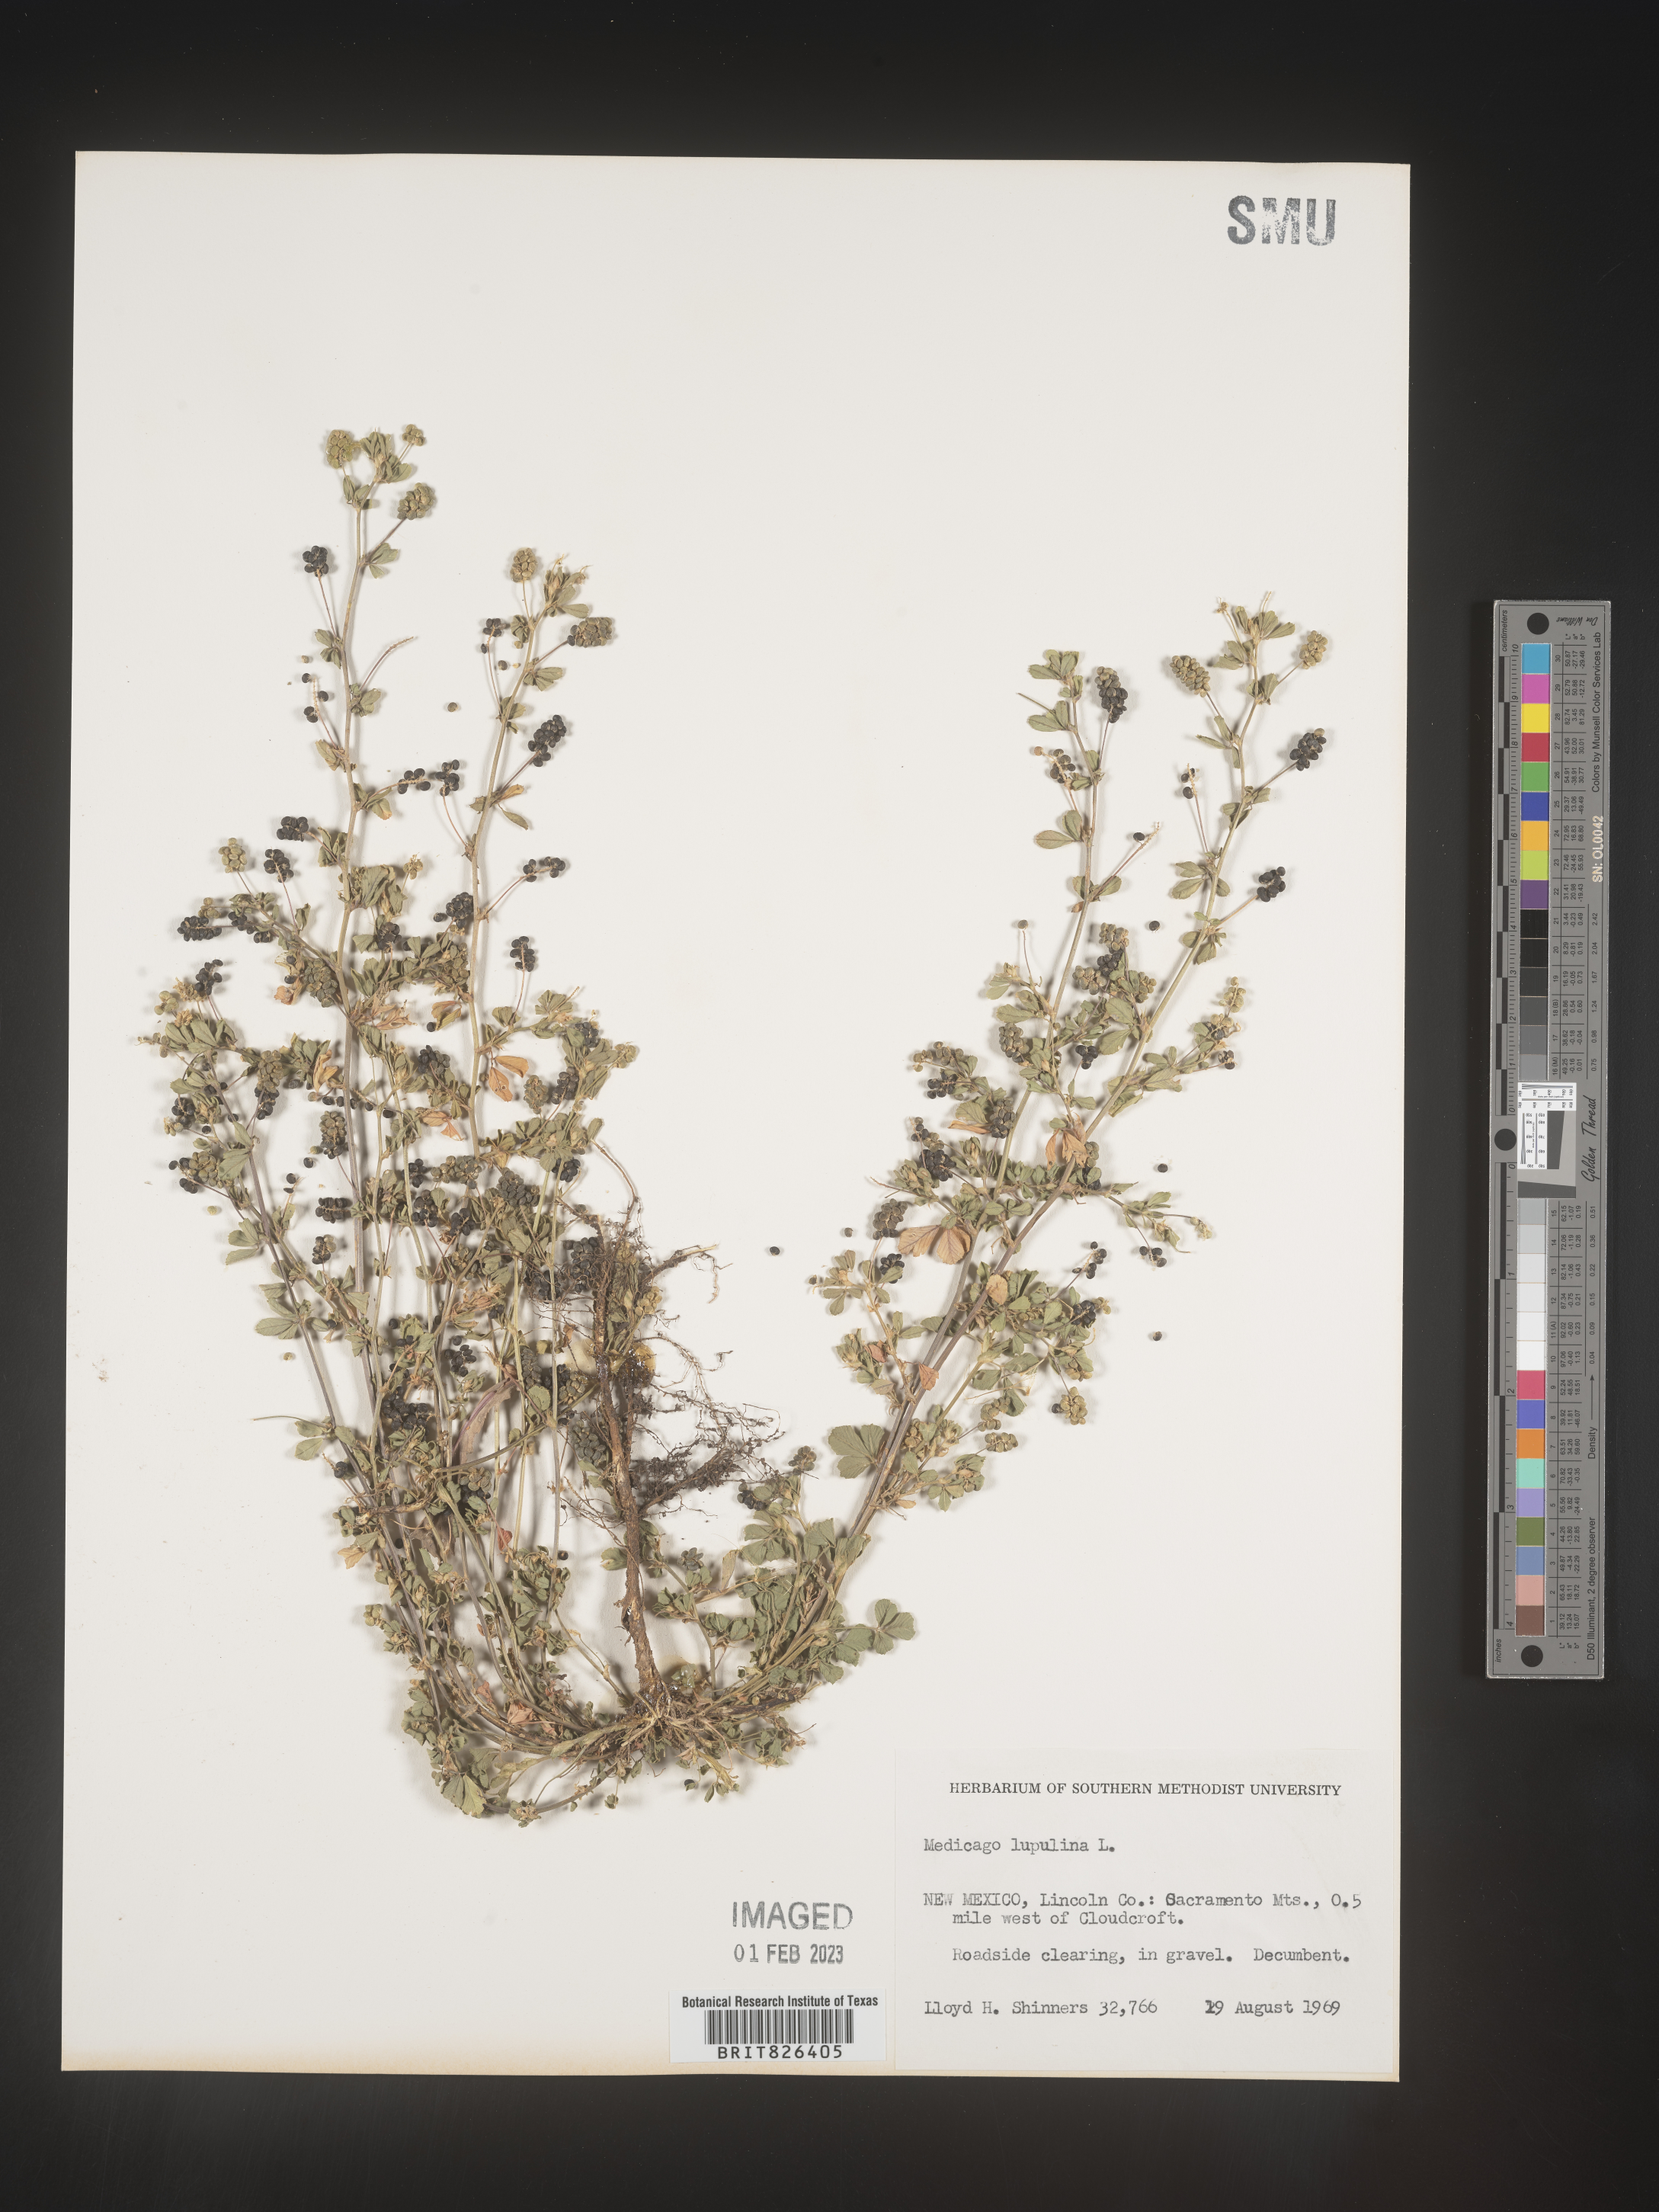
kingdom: Plantae
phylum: Tracheophyta
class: Magnoliopsida
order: Fabales
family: Fabaceae
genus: Medicago
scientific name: Medicago lupulina
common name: Black medick
